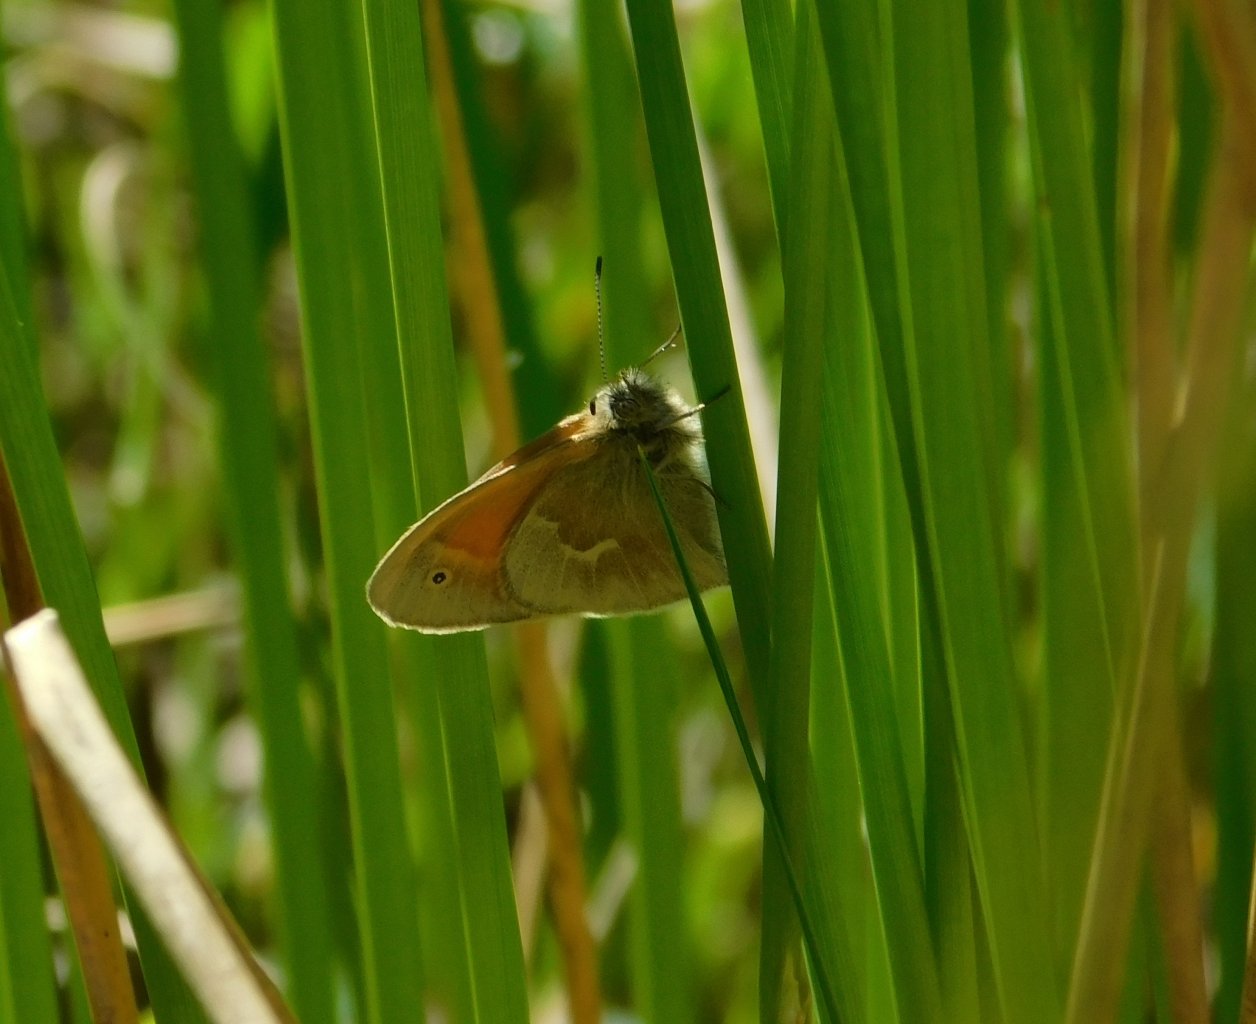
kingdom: Animalia
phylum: Arthropoda
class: Insecta
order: Lepidoptera
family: Nymphalidae
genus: Coenonympha
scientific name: Coenonympha tullia
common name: Large Heath
